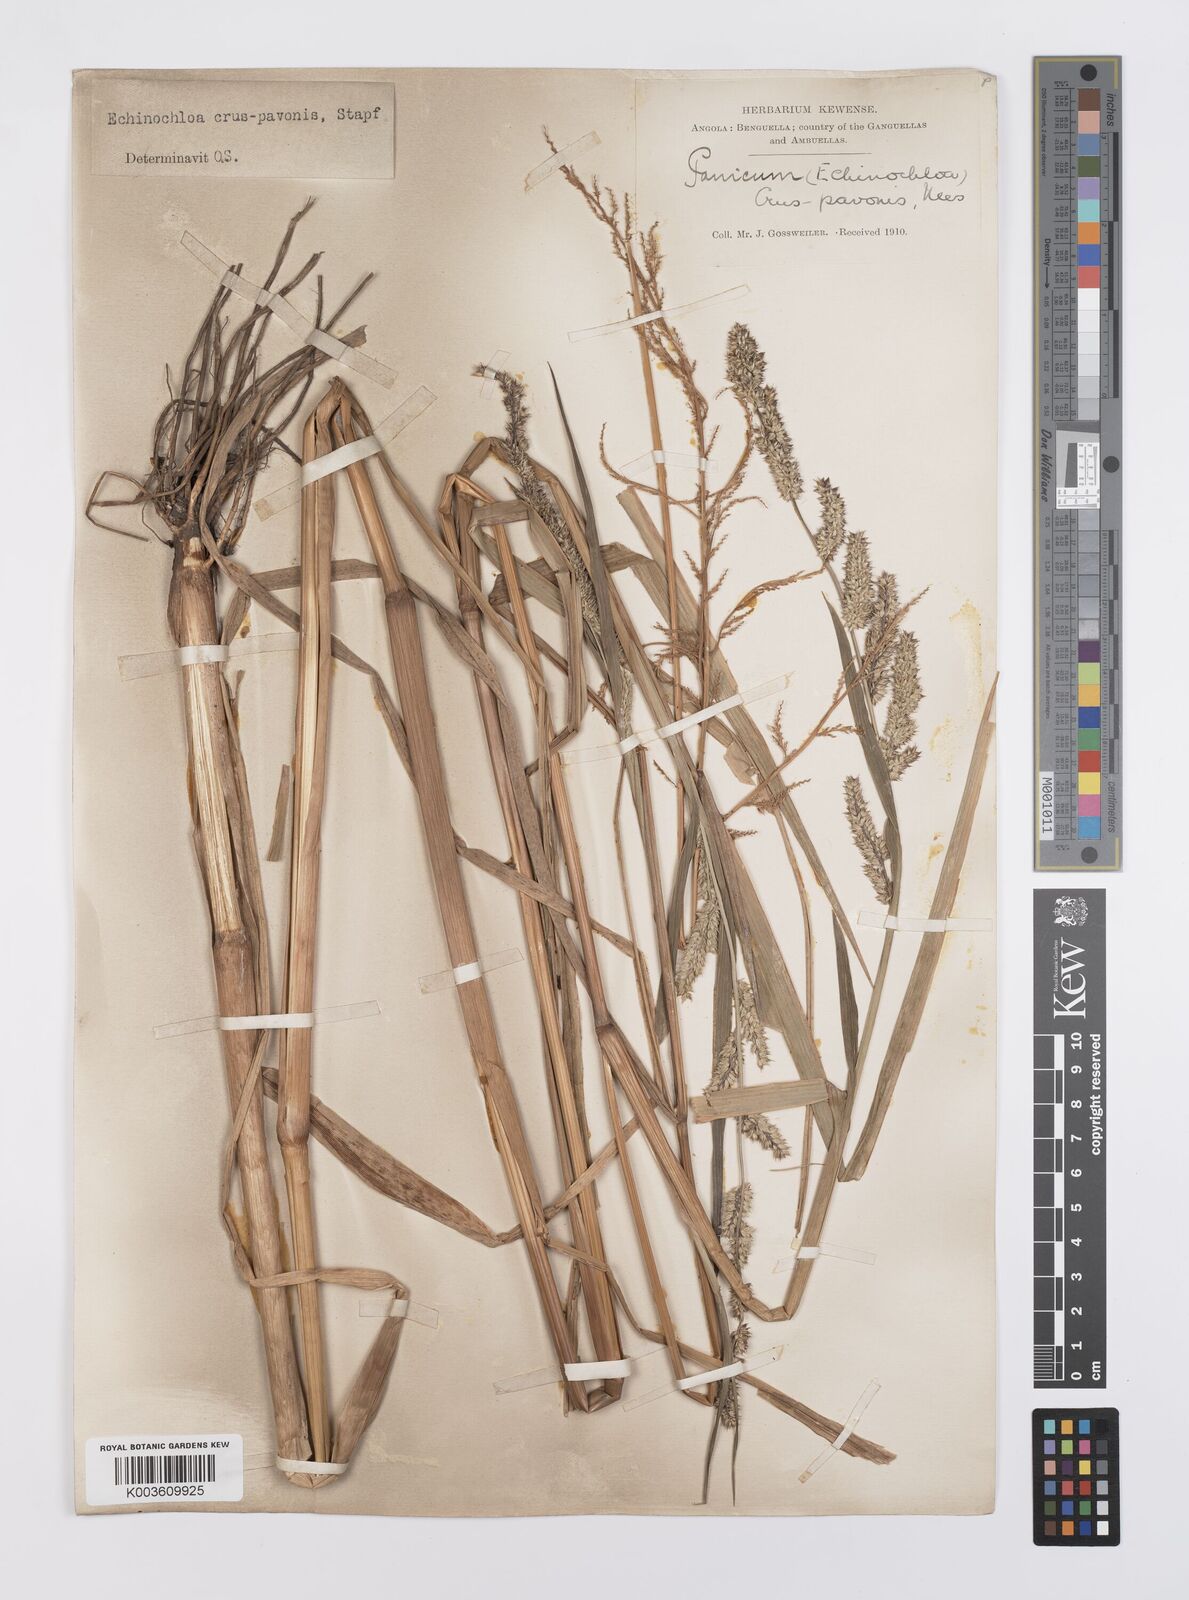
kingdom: Plantae
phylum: Tracheophyta
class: Liliopsida
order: Poales
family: Poaceae
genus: Echinochloa
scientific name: Echinochloa crus-pavonis
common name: Gulf cockspur grass
